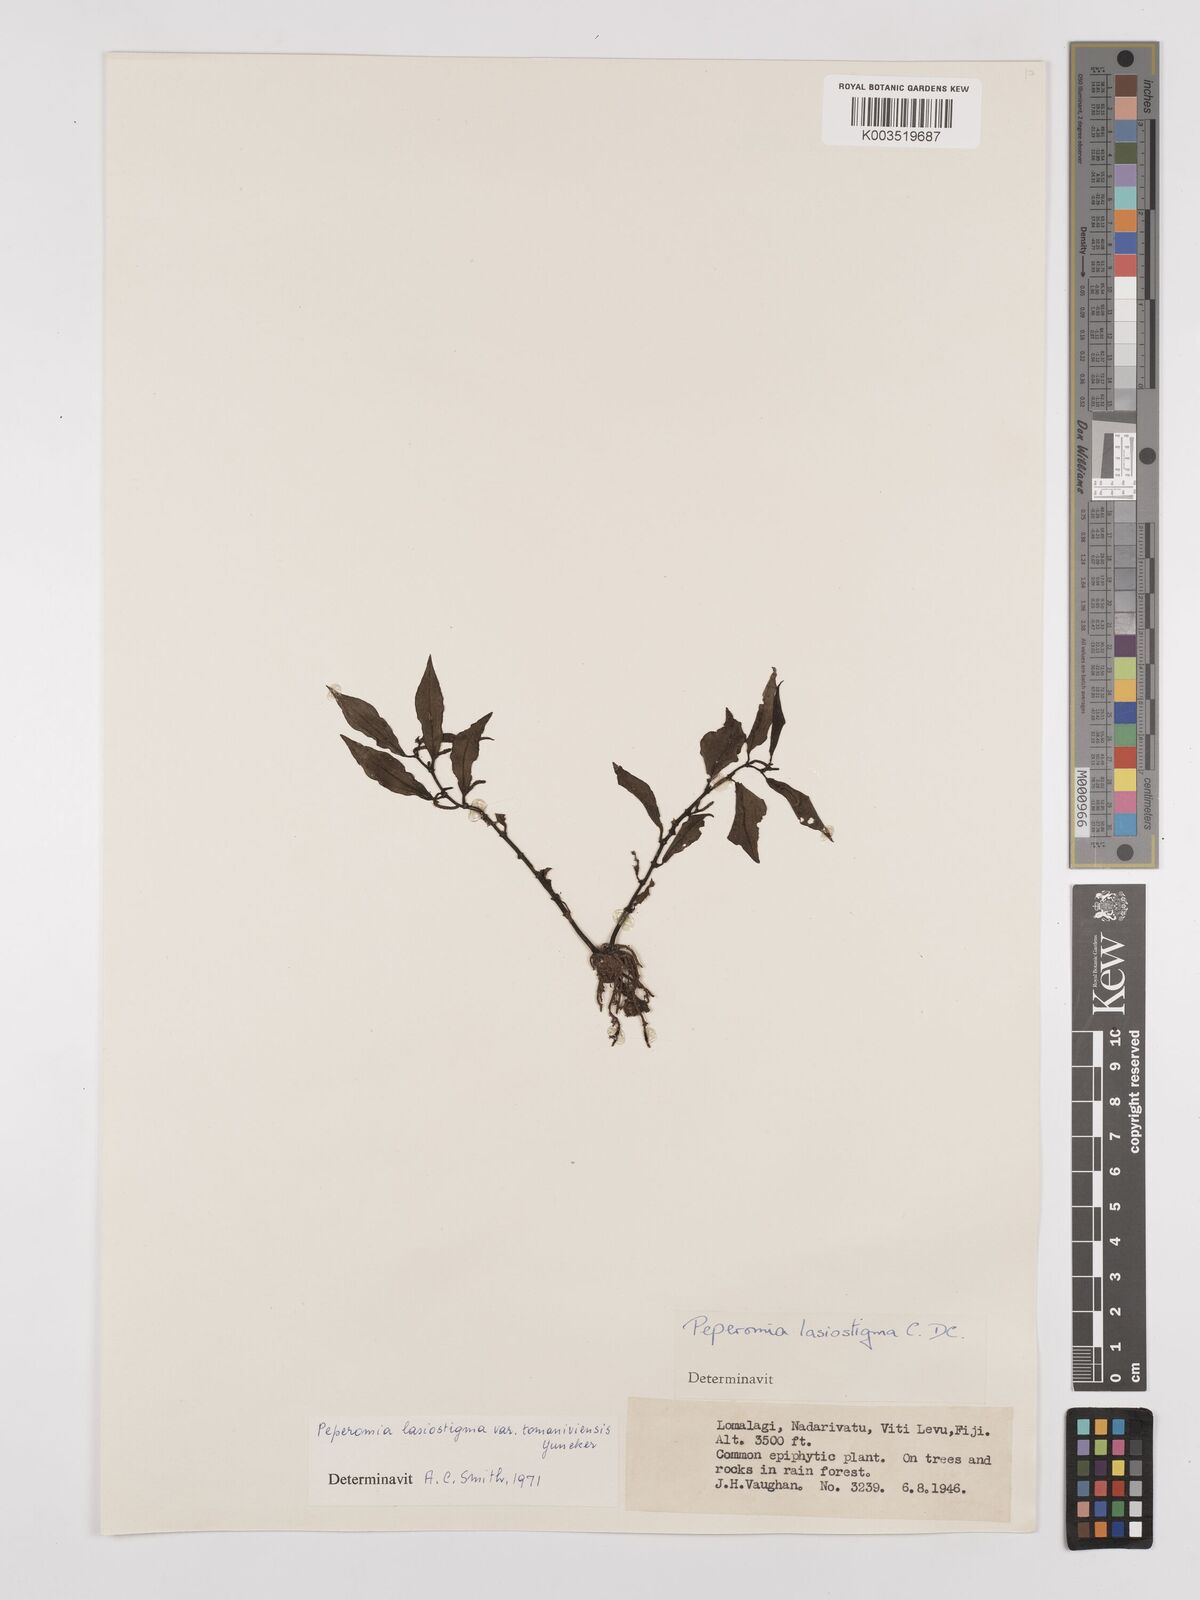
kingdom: Plantae
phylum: Tracheophyta
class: Magnoliopsida
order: Piperales
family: Piperaceae
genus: Peperomia
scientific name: Peperomia lasiostigma
